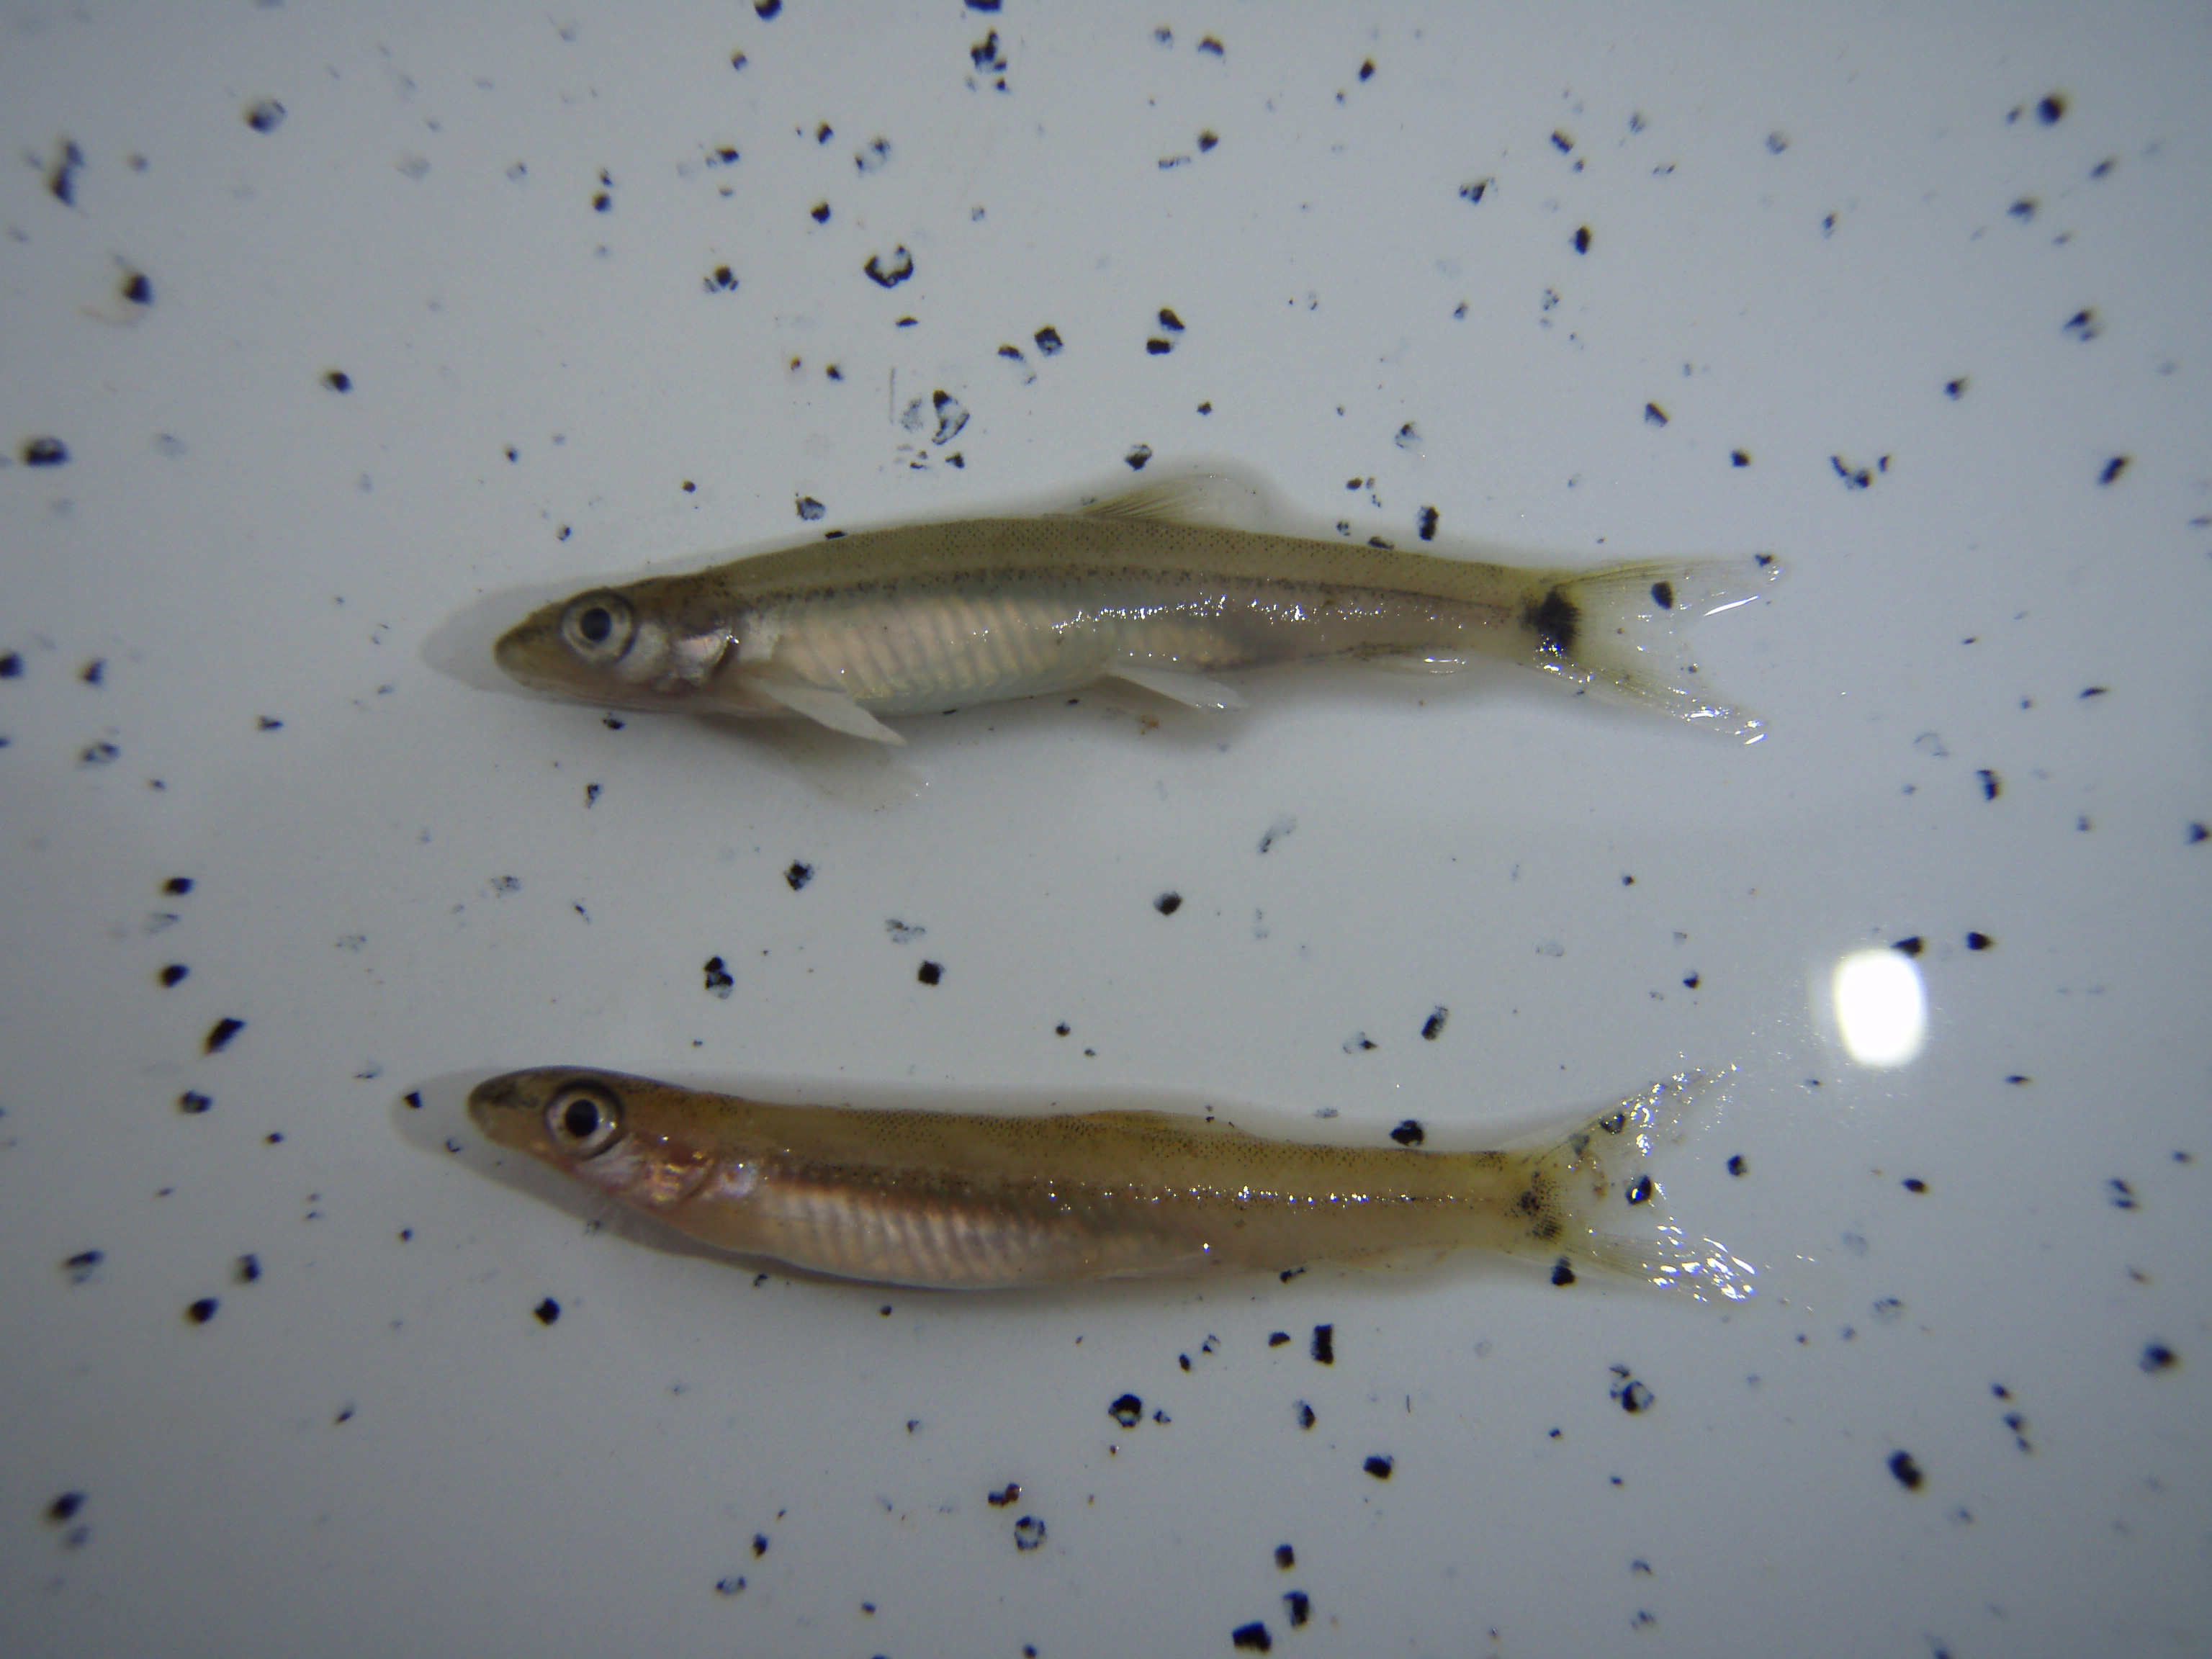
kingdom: Animalia
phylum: Chordata
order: Cypriniformes
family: Cyprinidae
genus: Leptocypris
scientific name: Leptocypris
